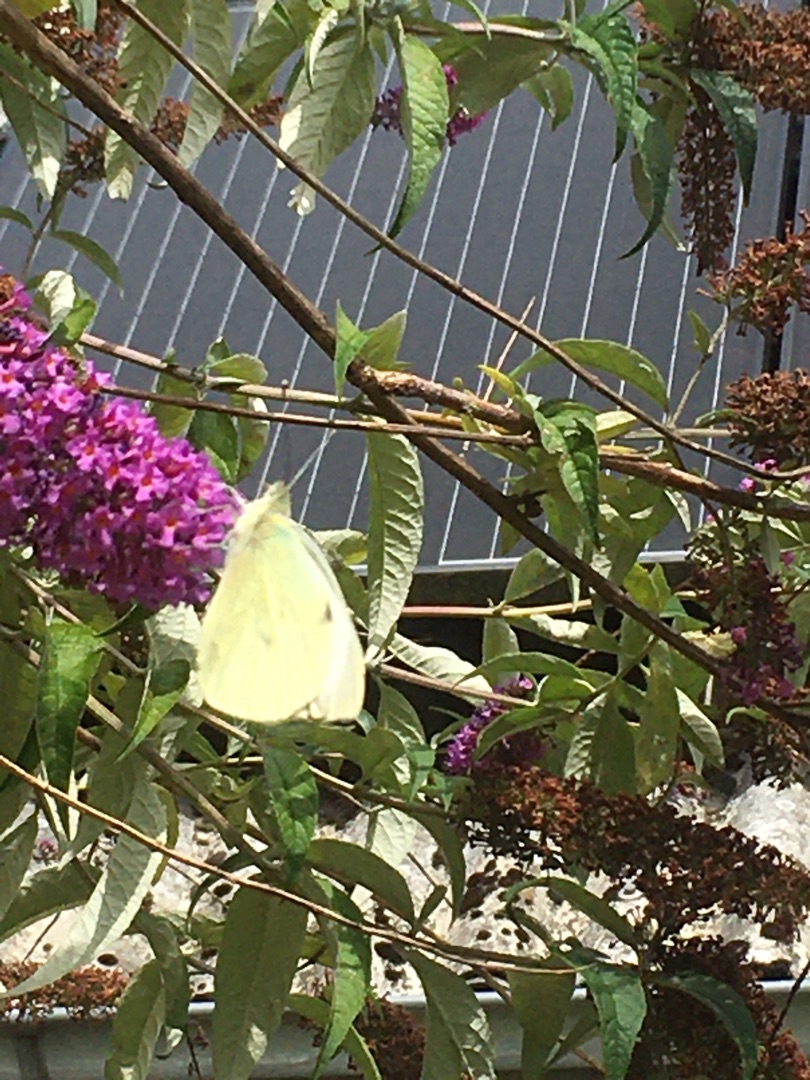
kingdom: Animalia
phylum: Arthropoda
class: Insecta
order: Lepidoptera
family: Pieridae
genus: Pieris
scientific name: Pieris brassicae
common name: Stor kålsommerfugl
